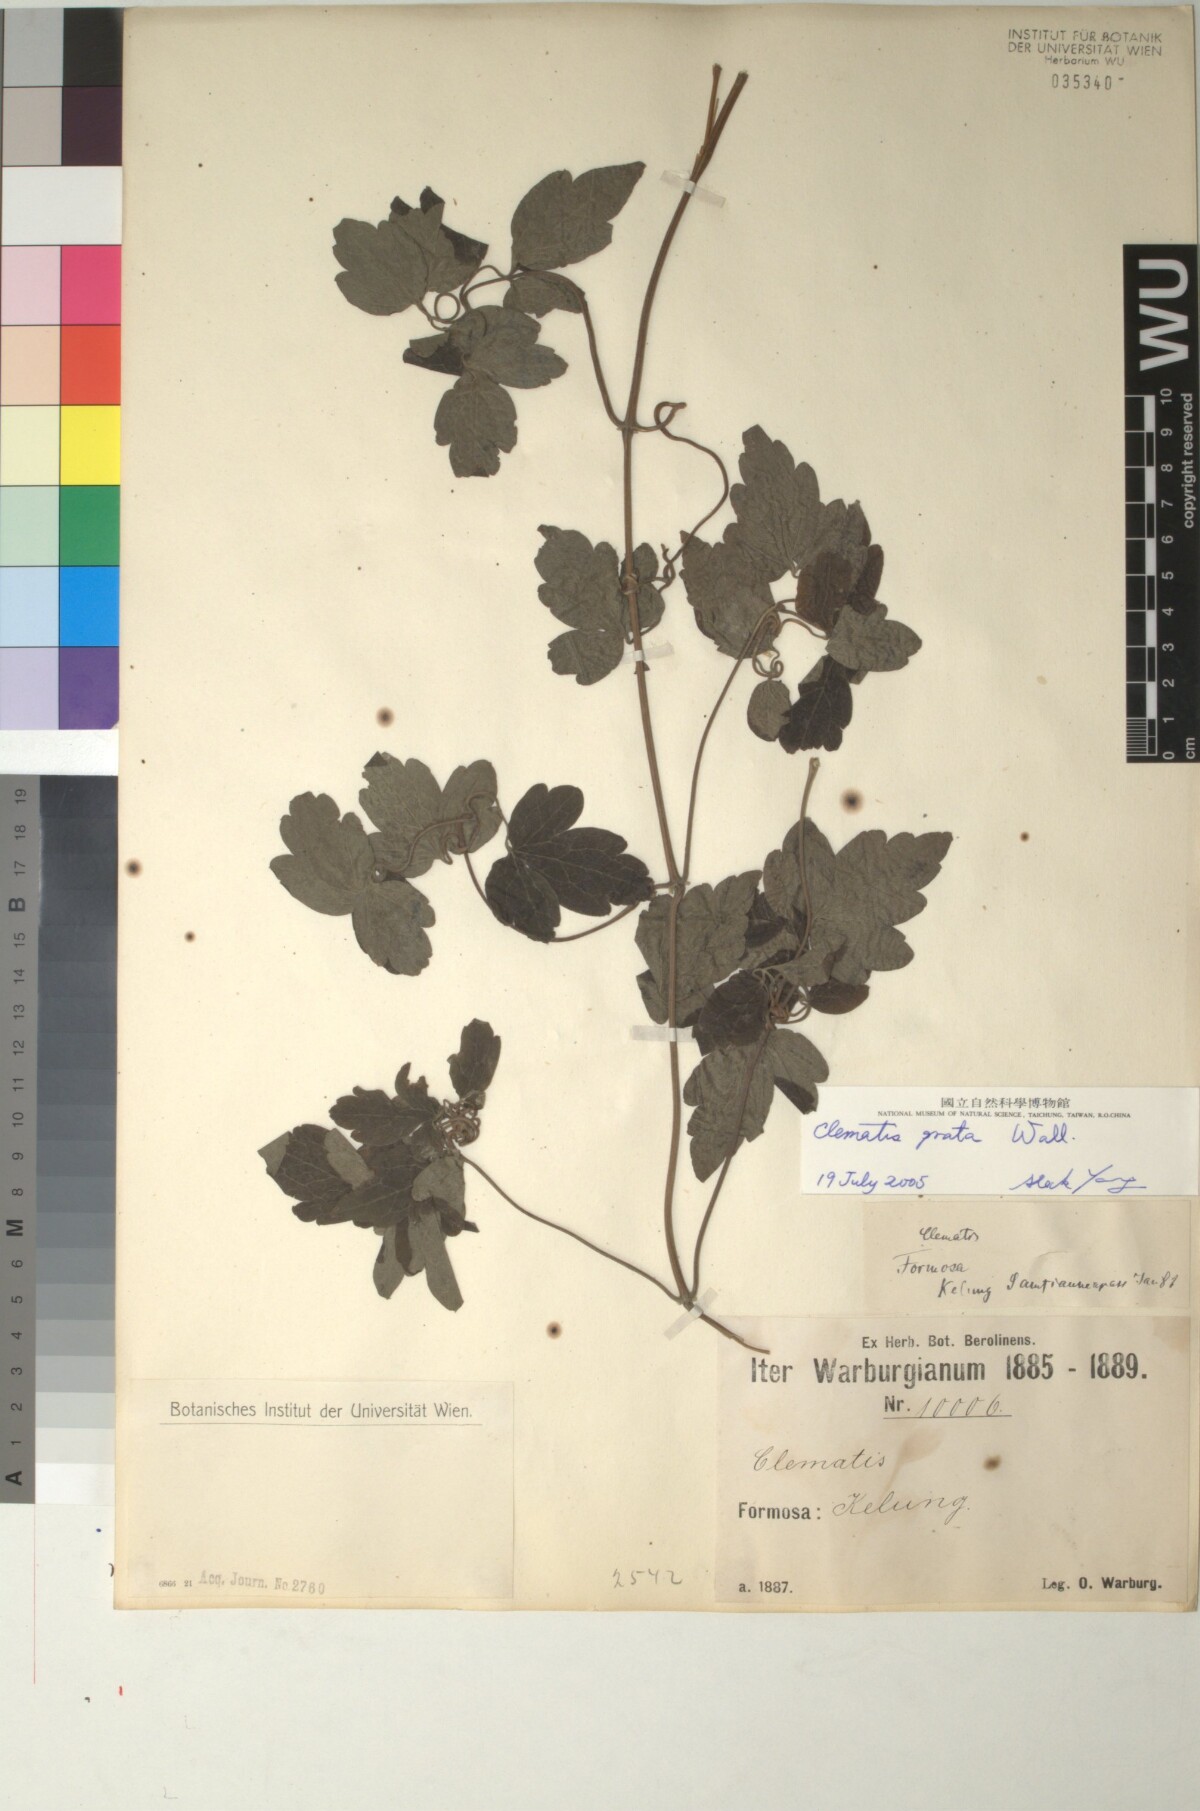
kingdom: Plantae
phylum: Tracheophyta
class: Magnoliopsida
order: Ranunculales
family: Ranunculaceae
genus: Clematis
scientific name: Clematis grata
